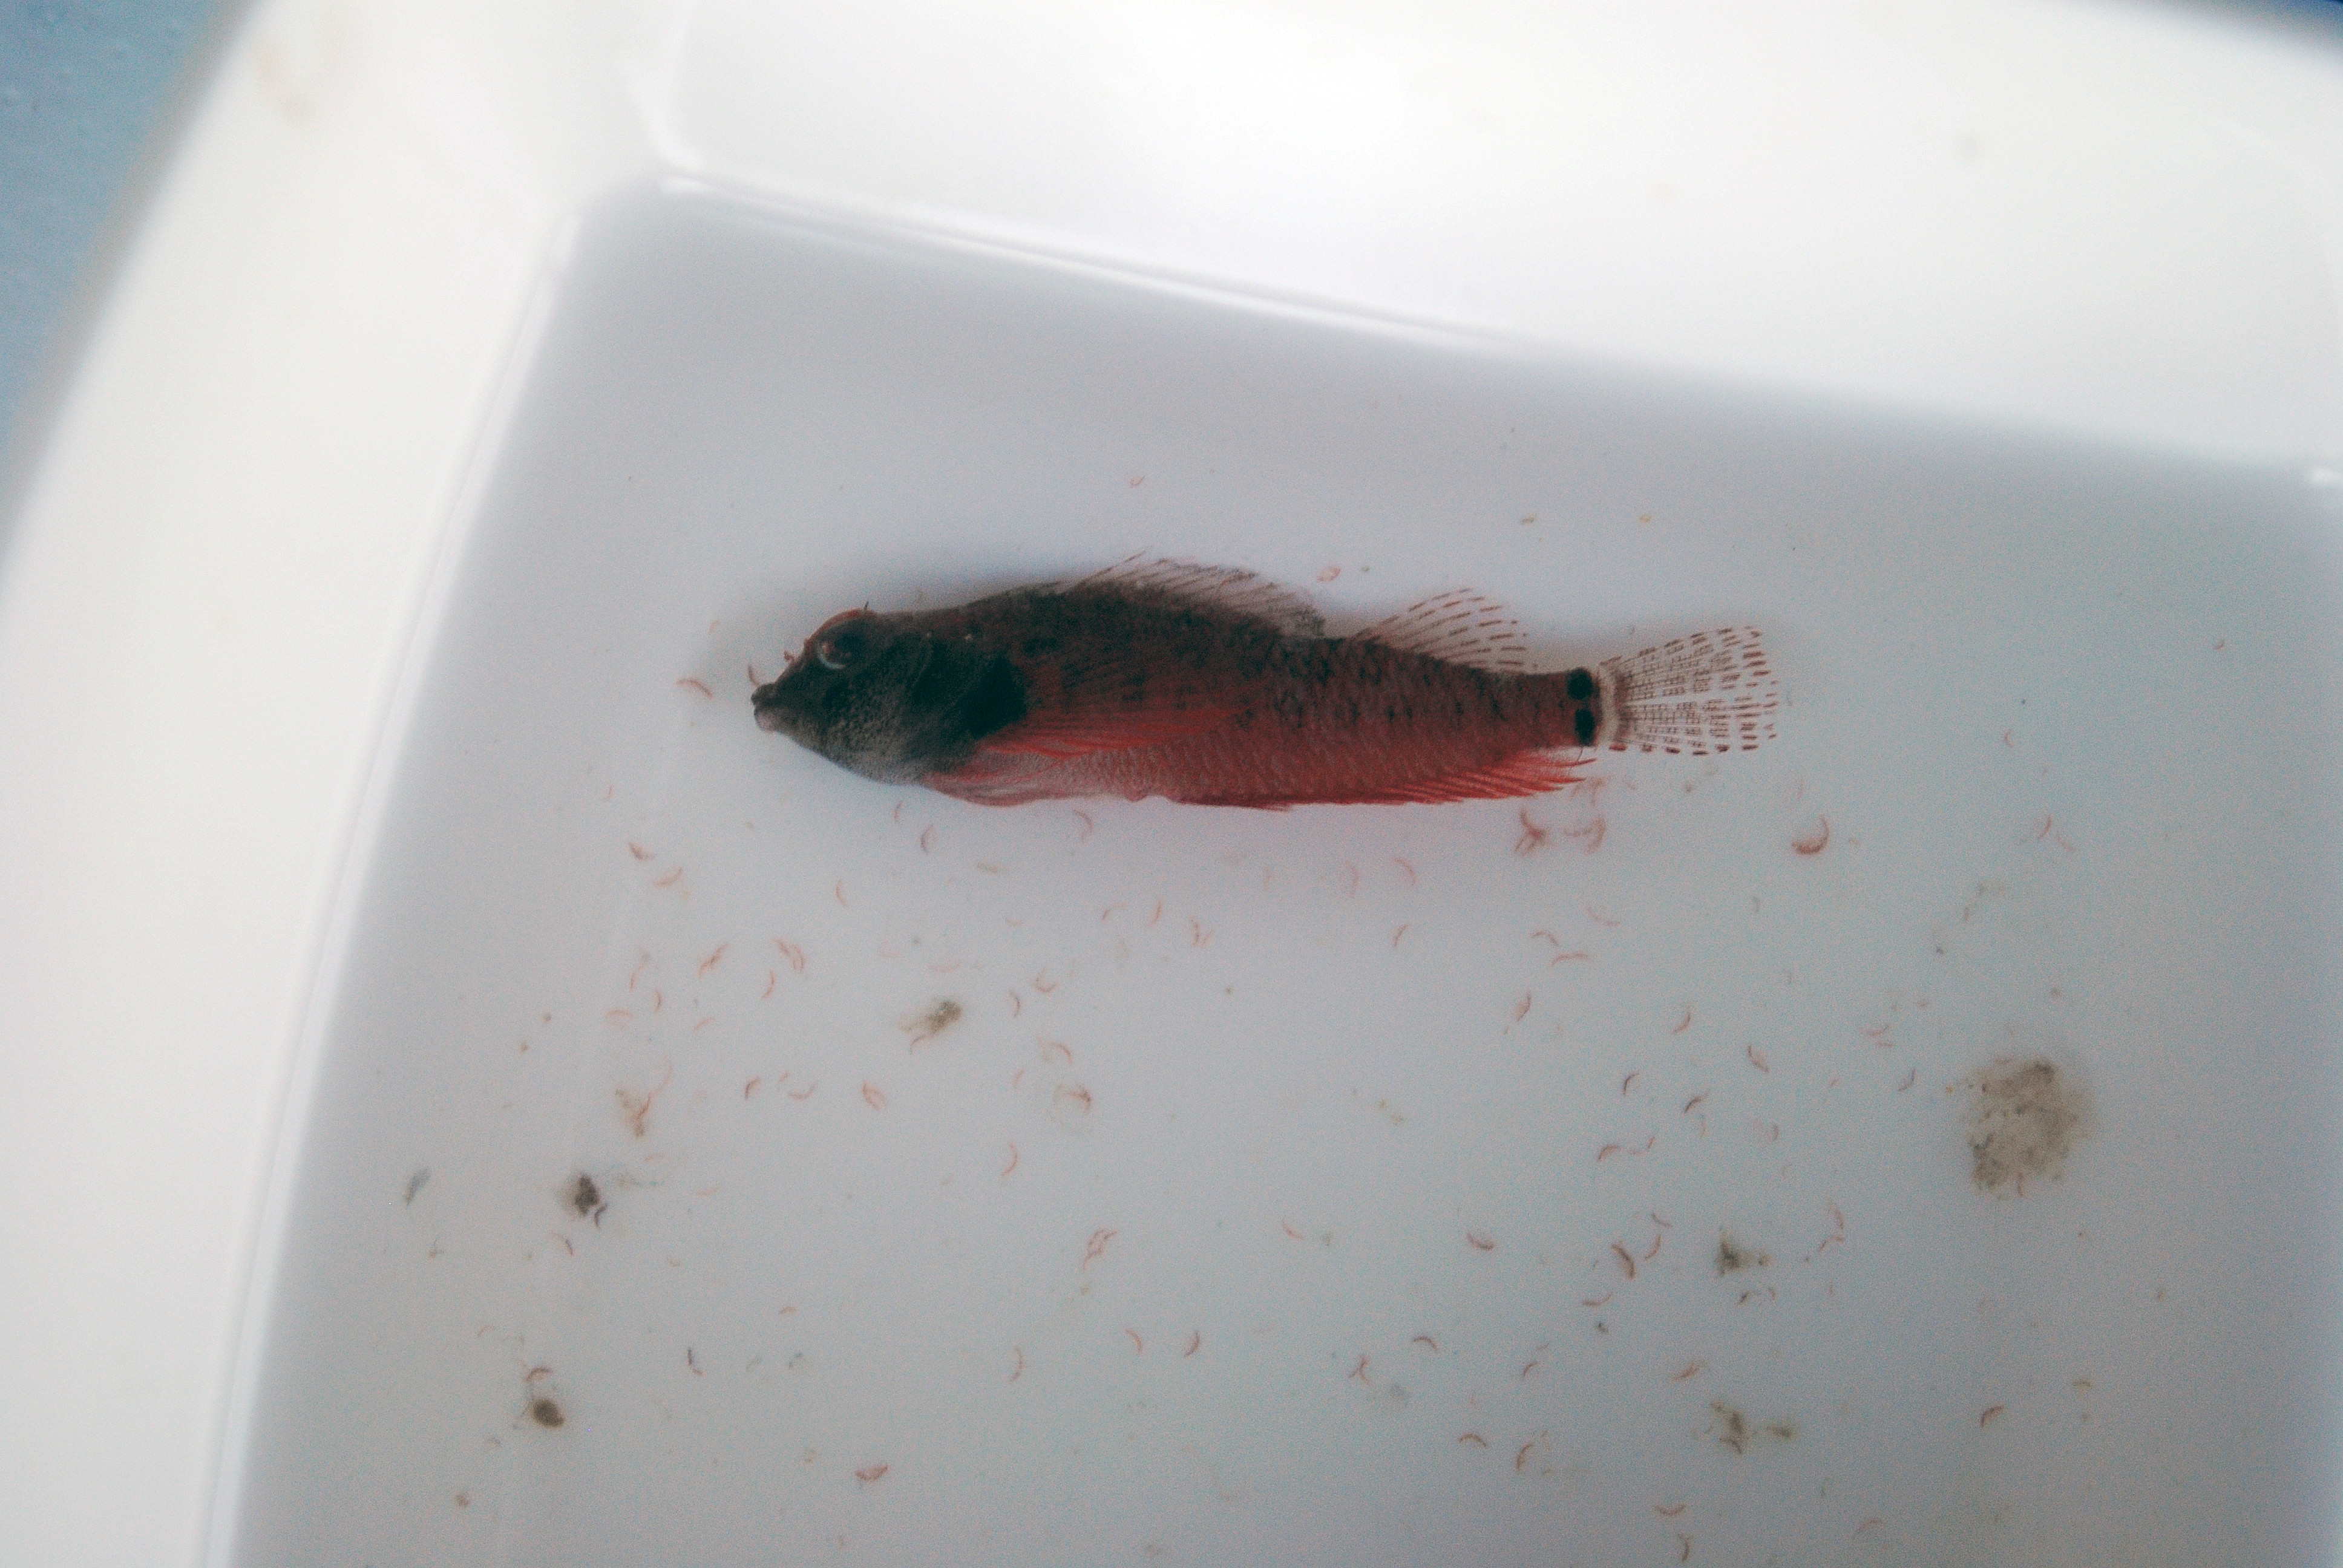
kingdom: Animalia
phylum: Chordata
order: Perciformes
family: Tripterygiidae
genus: Enneapterygius
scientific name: Enneapterygius elegans
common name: Elegant triplefin
